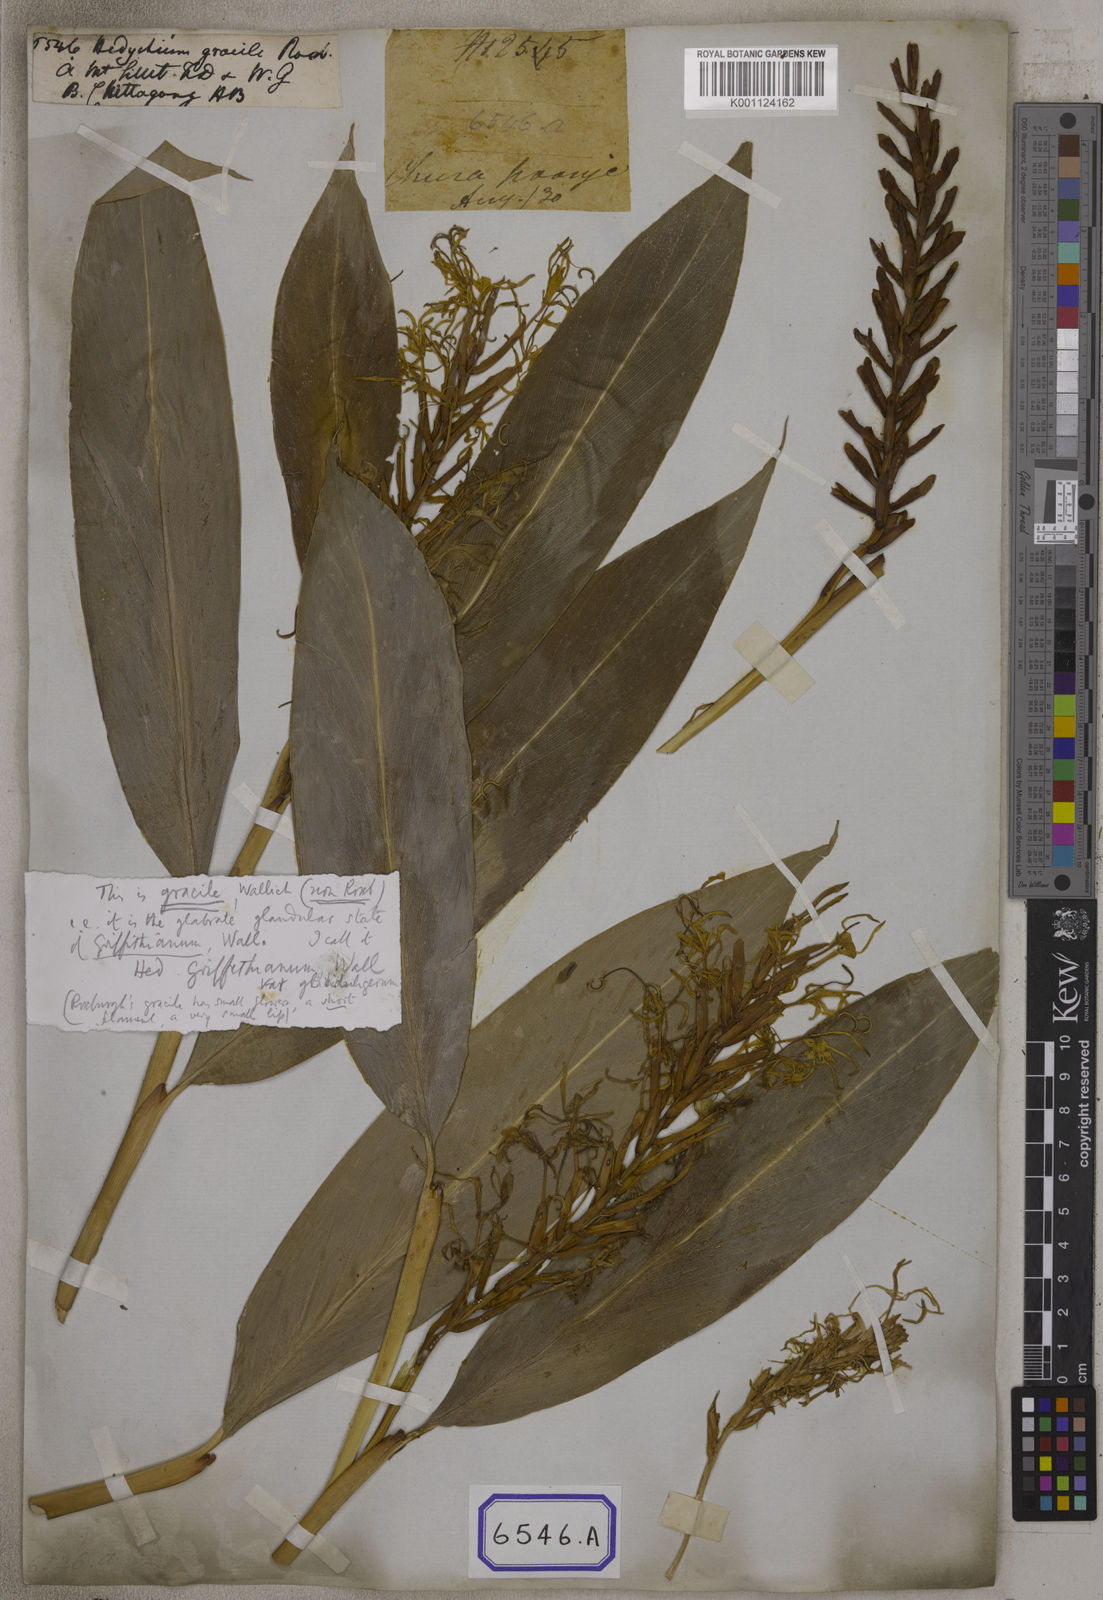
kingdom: Plantae
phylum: Tracheophyta
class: Liliopsida
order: Zingiberales
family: Zingiberaceae
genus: Hedychium
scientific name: Hedychium gracile
